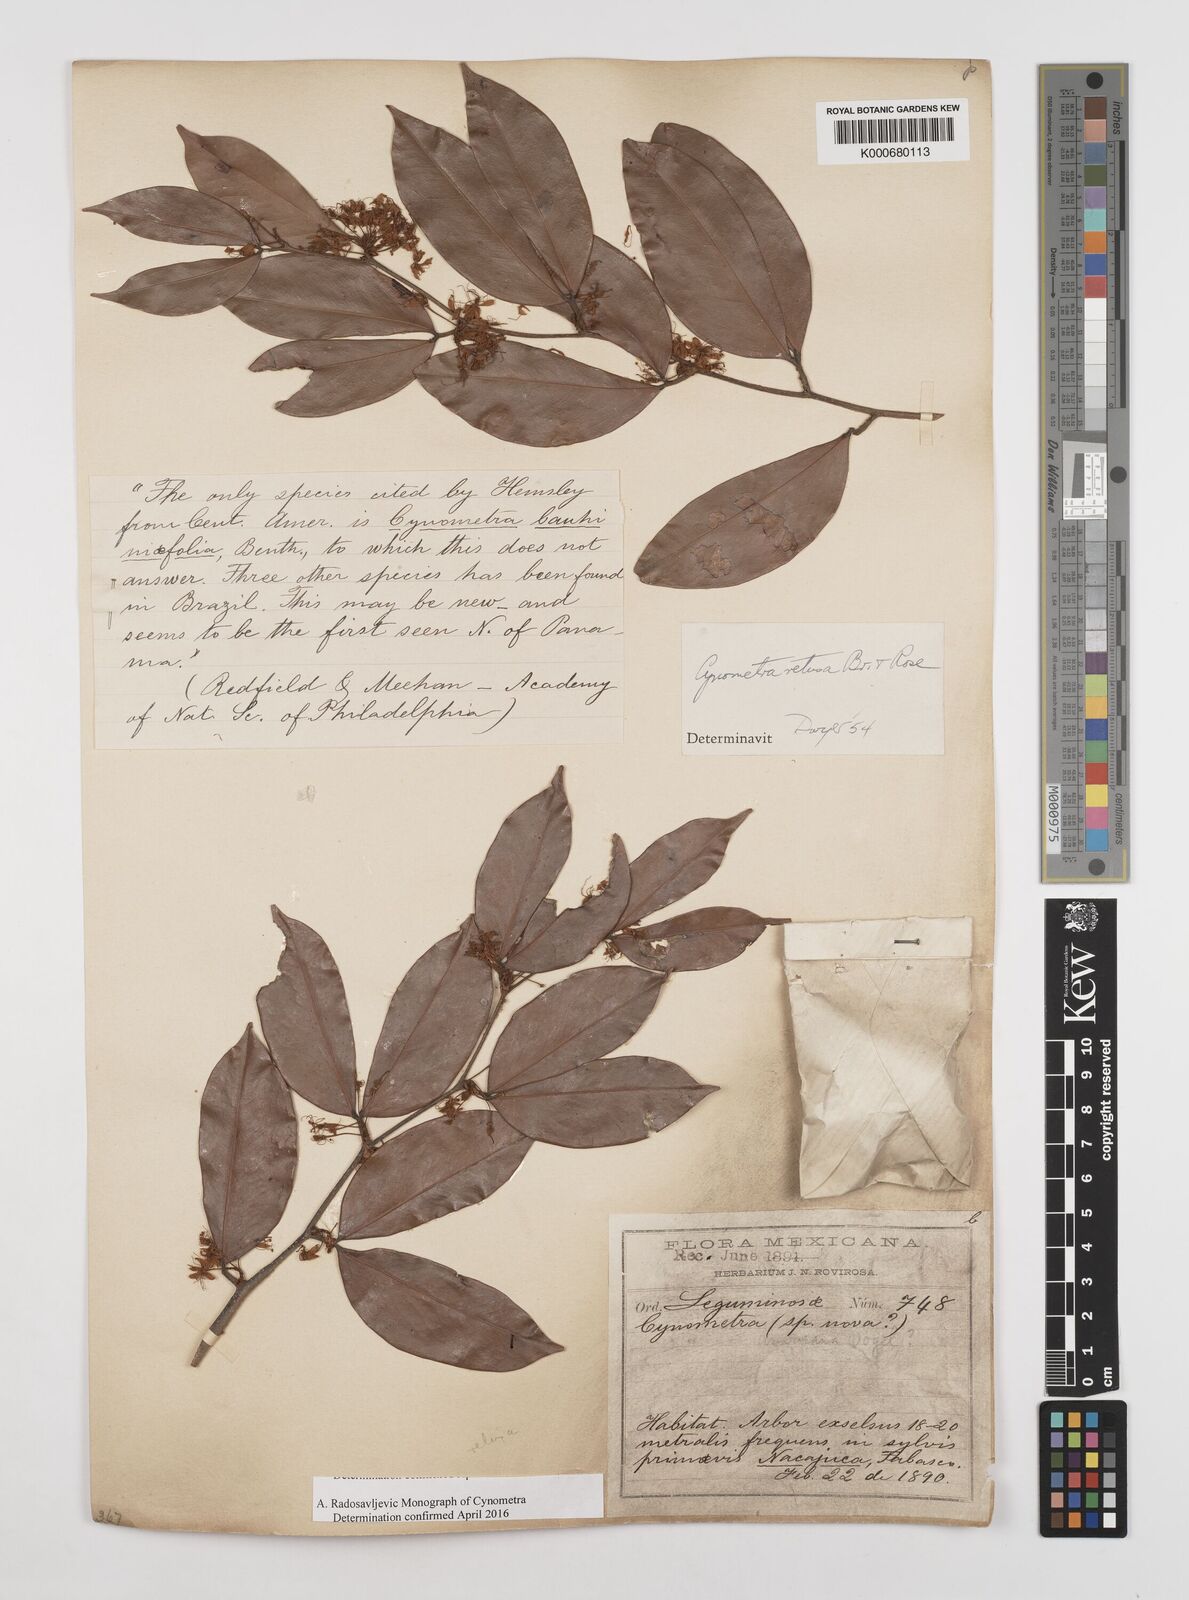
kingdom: Plantae
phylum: Tracheophyta
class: Magnoliopsida
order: Fabales
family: Fabaceae
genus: Cynometra
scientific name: Cynometra americana
